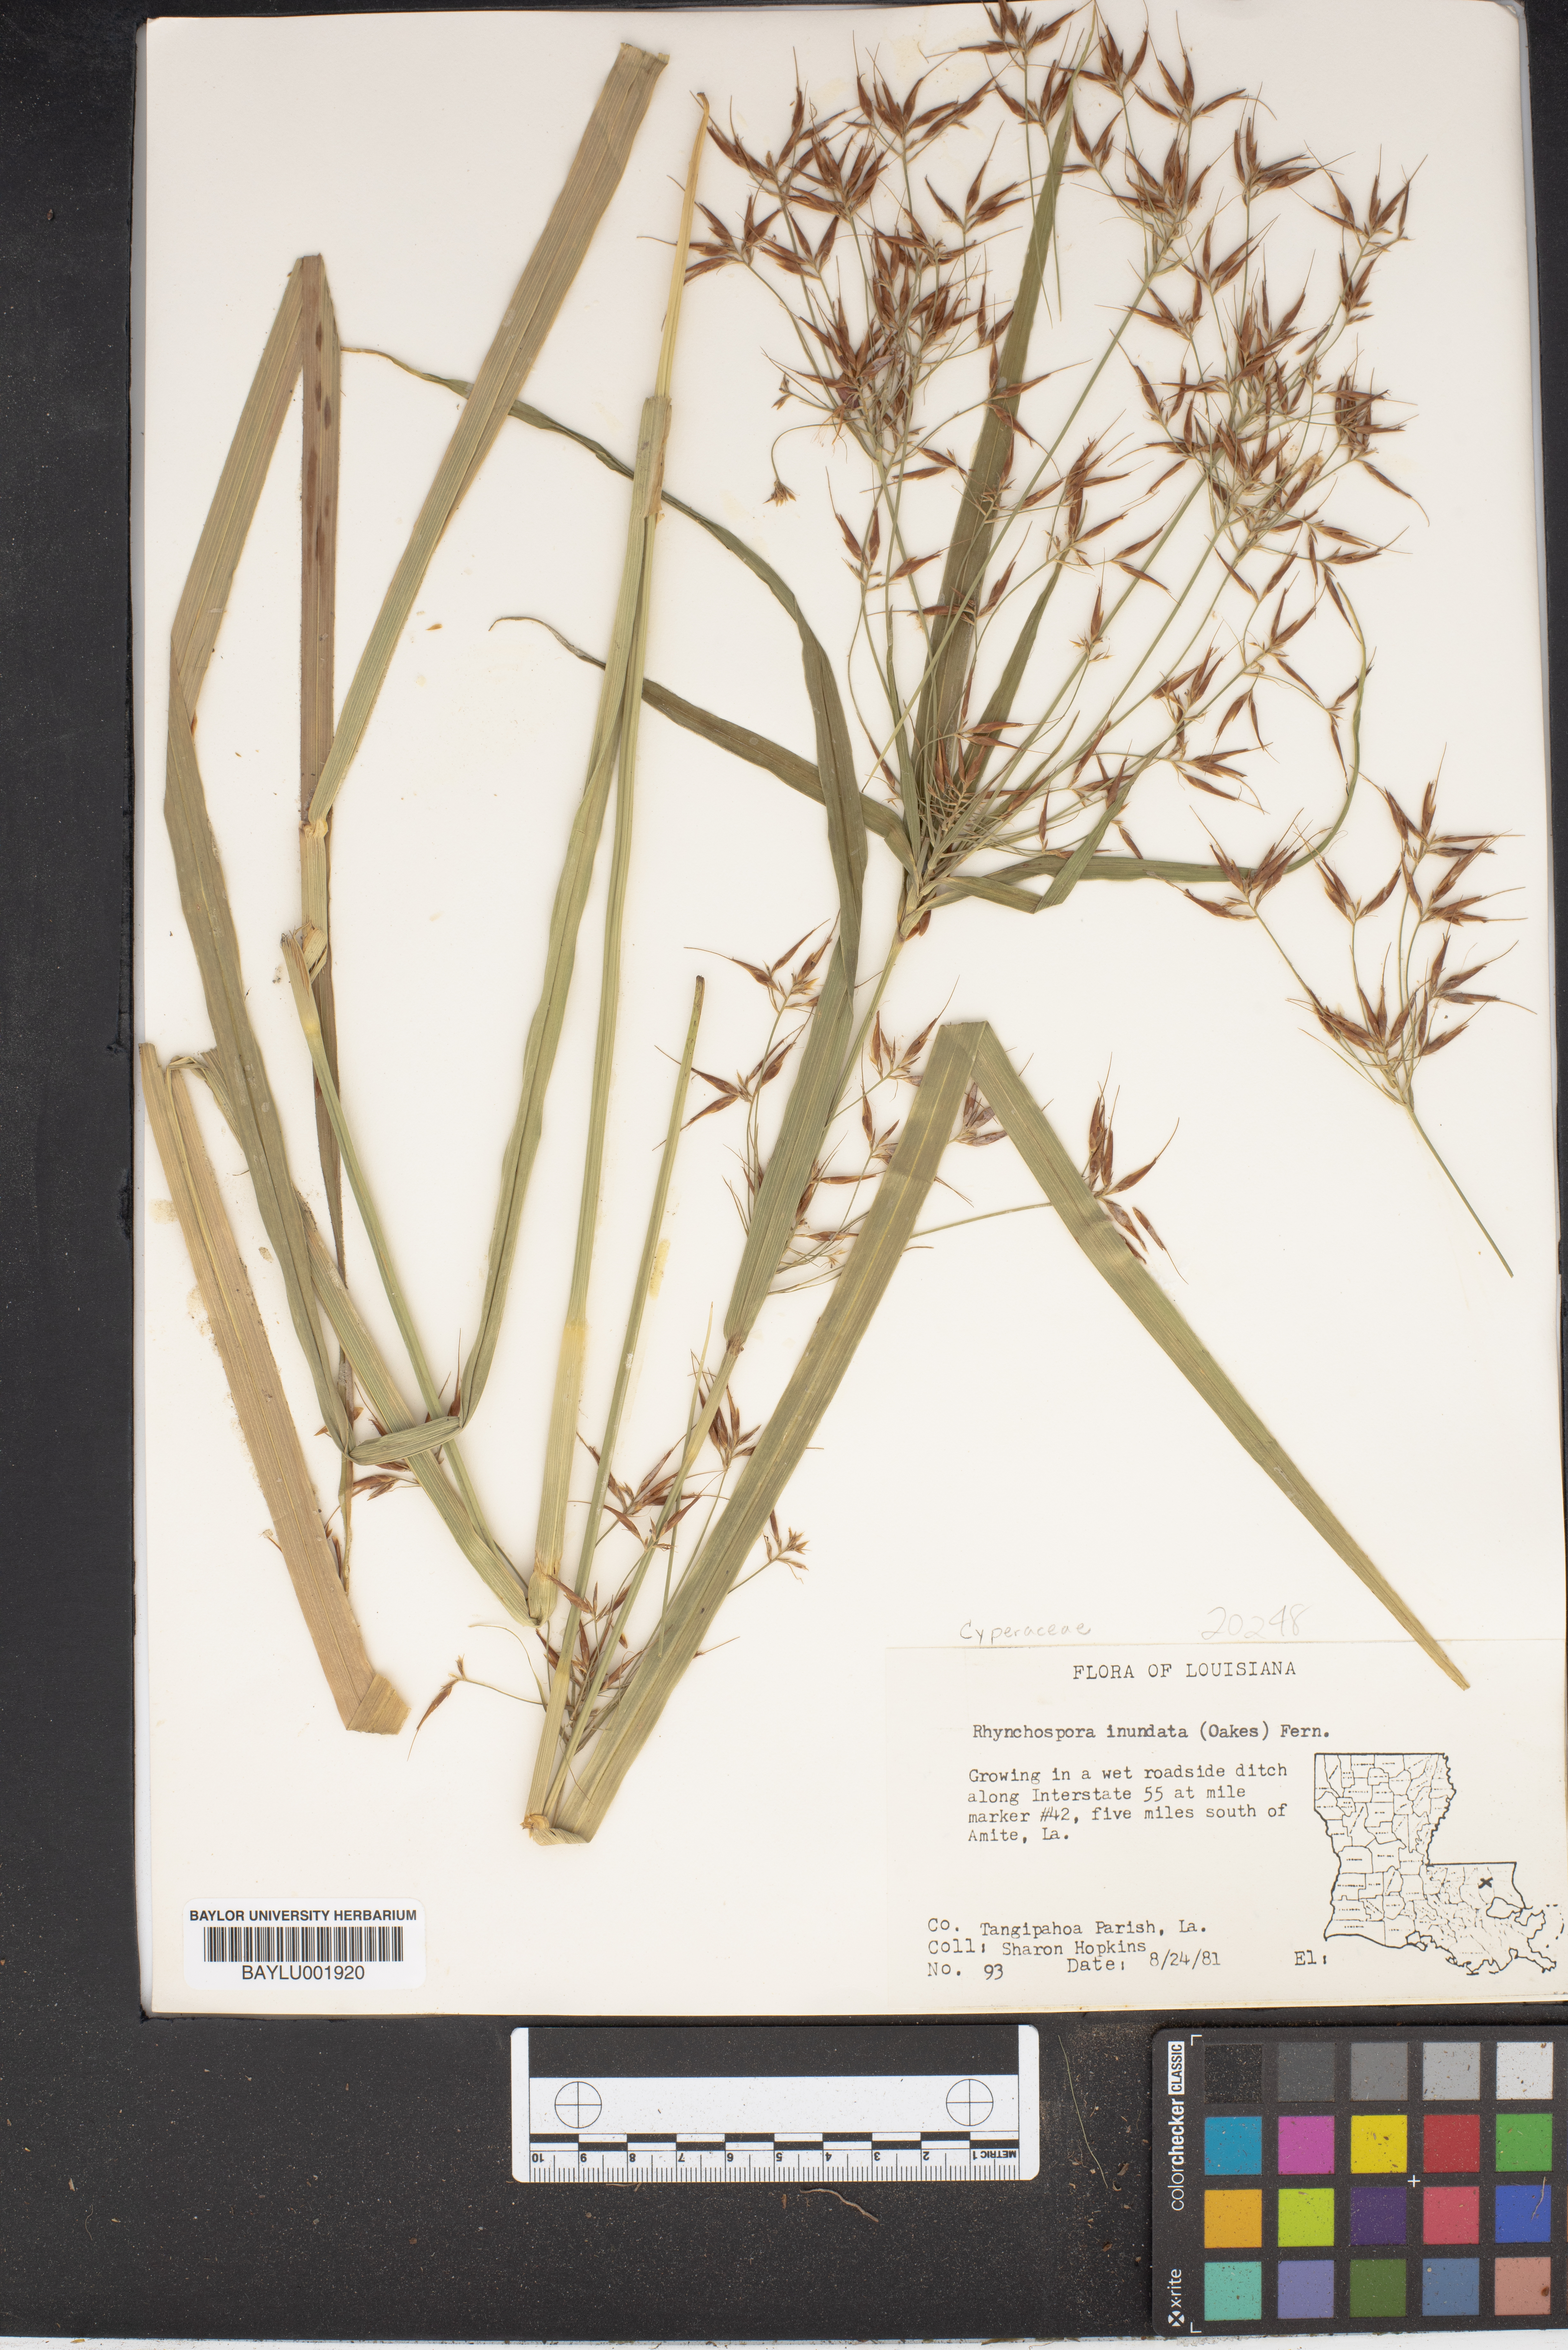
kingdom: Plantae
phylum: Tracheophyta
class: Liliopsida
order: Poales
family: Cyperaceae
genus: Rhynchospora
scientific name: Rhynchospora inundata
